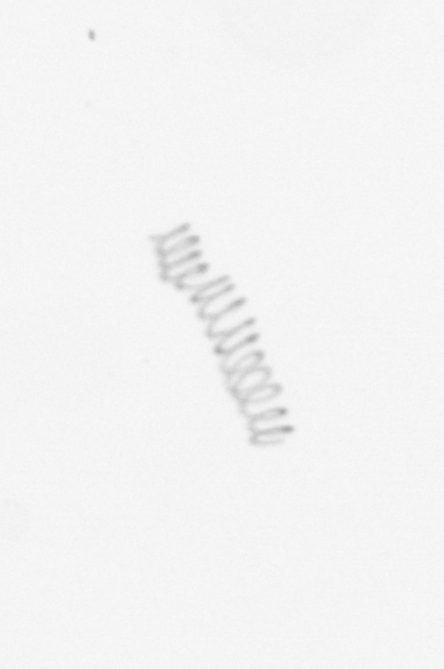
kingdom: Chromista
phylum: Ochrophyta
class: Bacillariophyceae
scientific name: Bacillariophyceae
